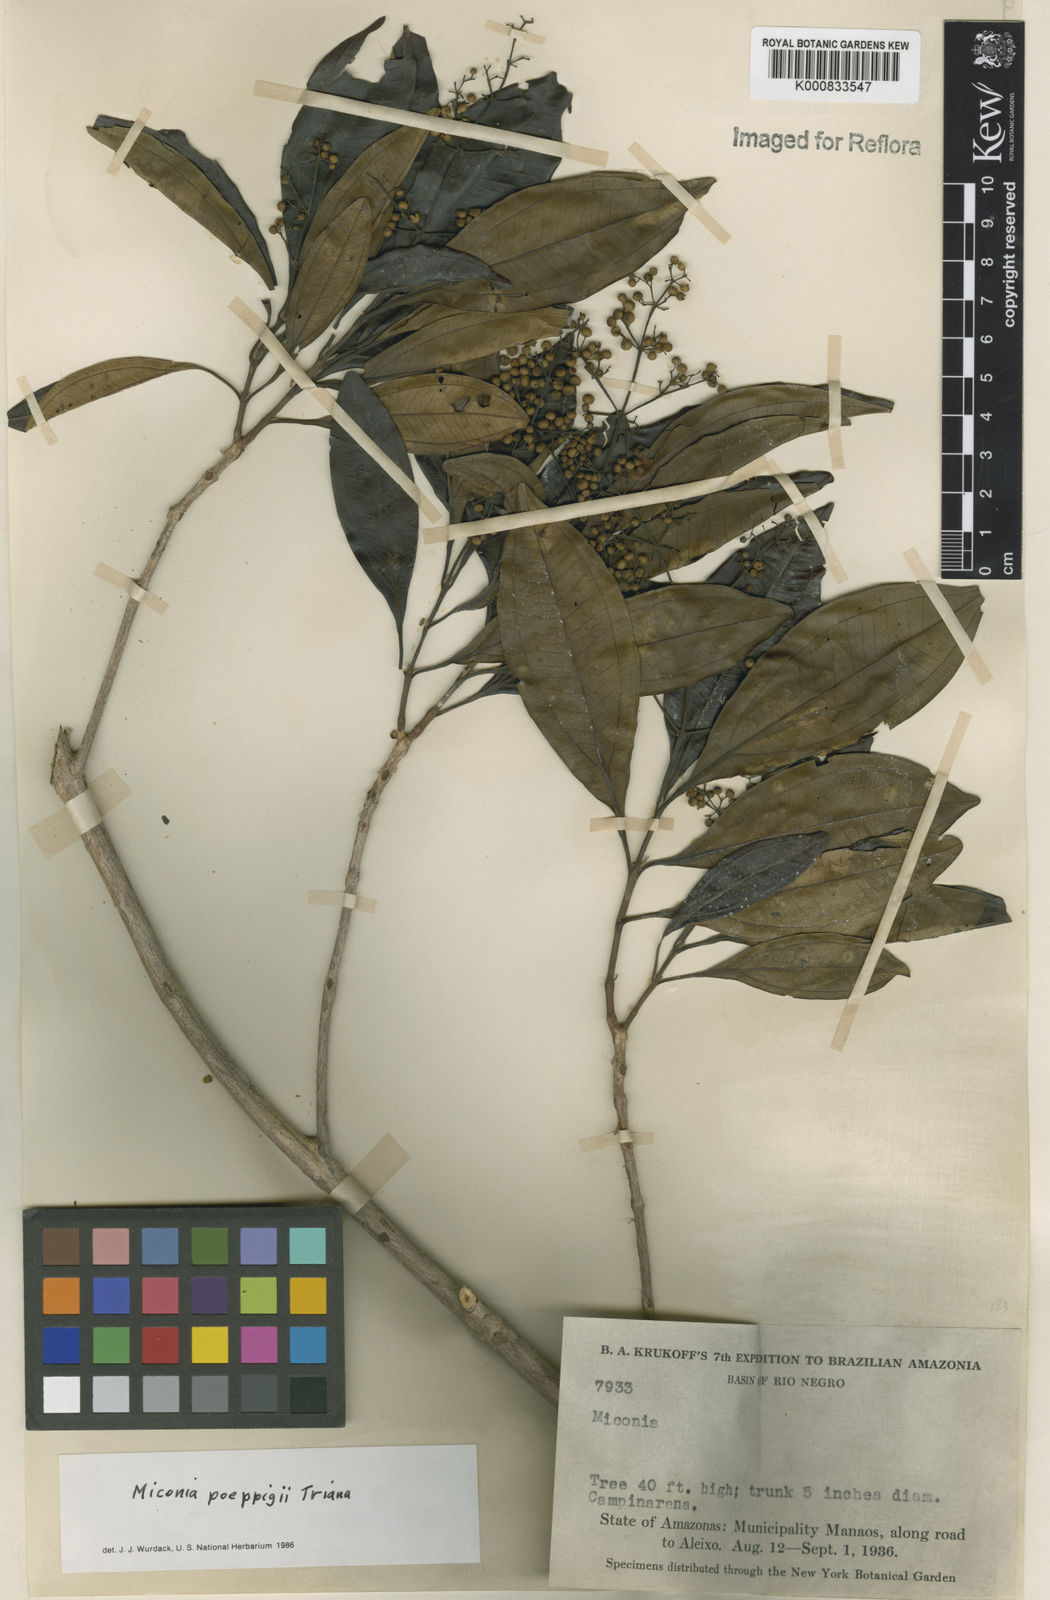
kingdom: Plantae
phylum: Tracheophyta
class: Magnoliopsida
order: Myrtales
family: Melastomataceae
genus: Miconia
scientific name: Miconia poeppigii
